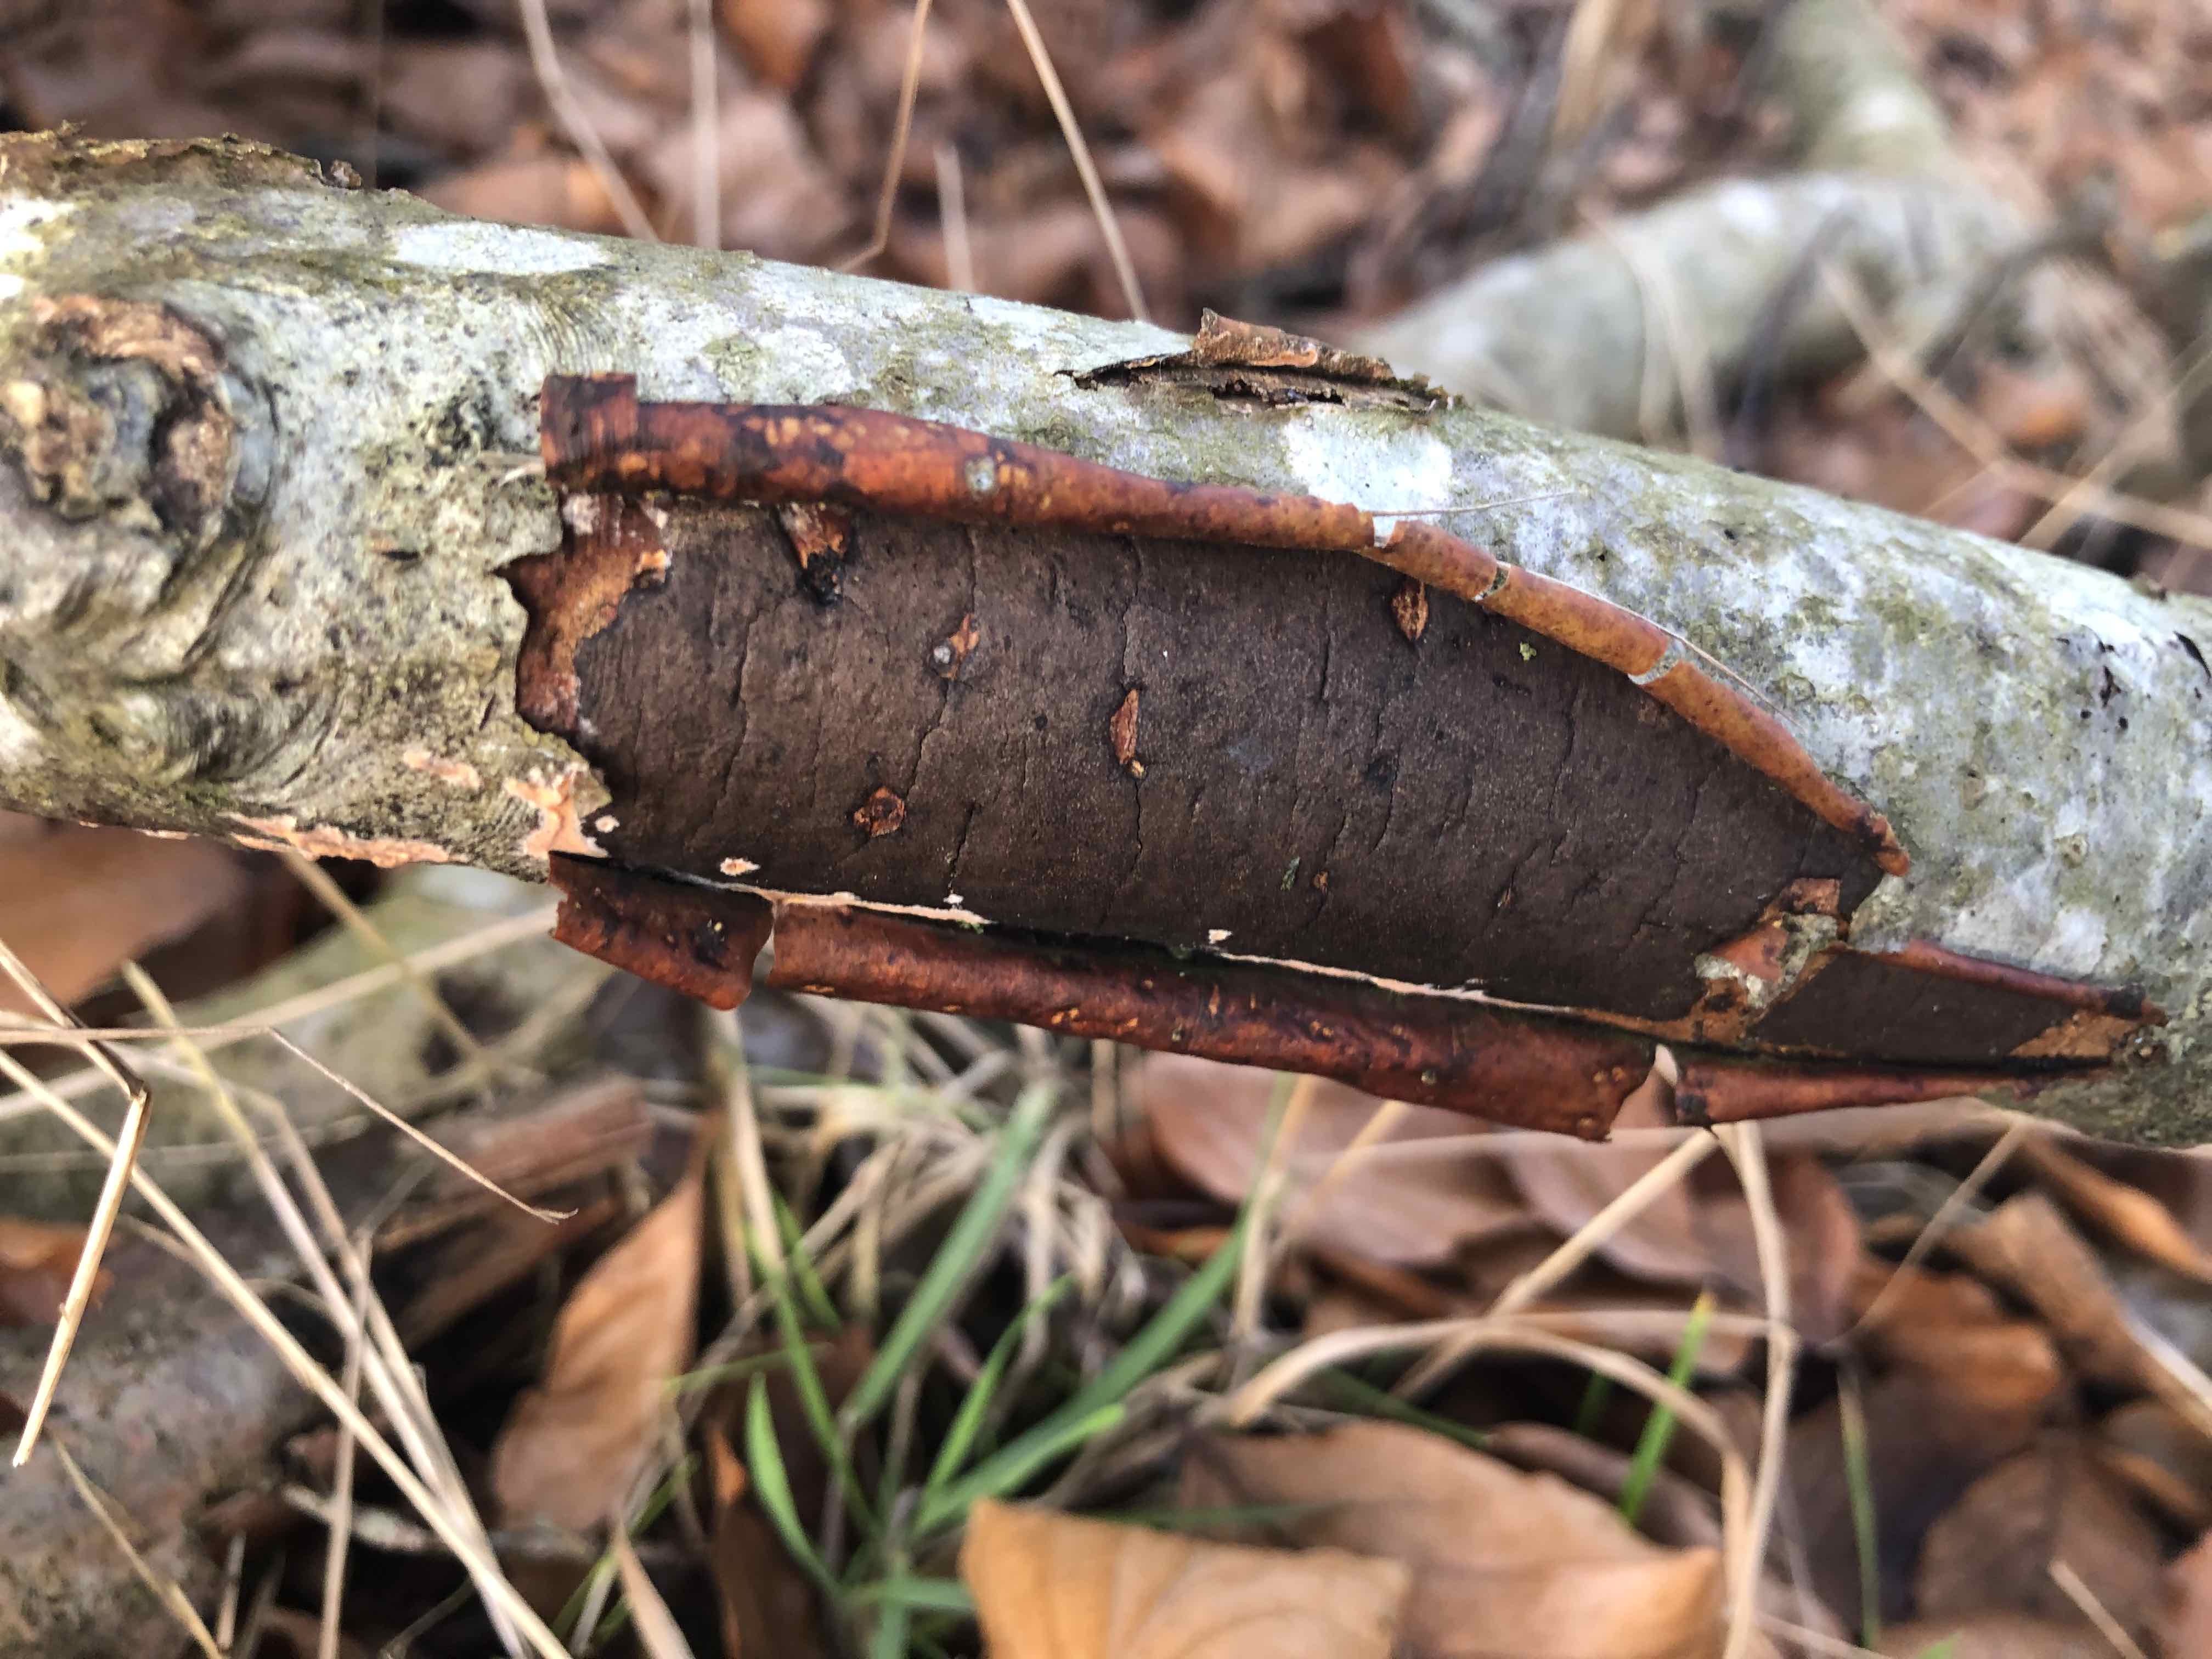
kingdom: Fungi
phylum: Ascomycota
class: Sordariomycetes
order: Xylariales
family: Diatrypaceae
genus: Diatrype
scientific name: Diatrype decorticata
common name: barksprænger-kulskorpe
